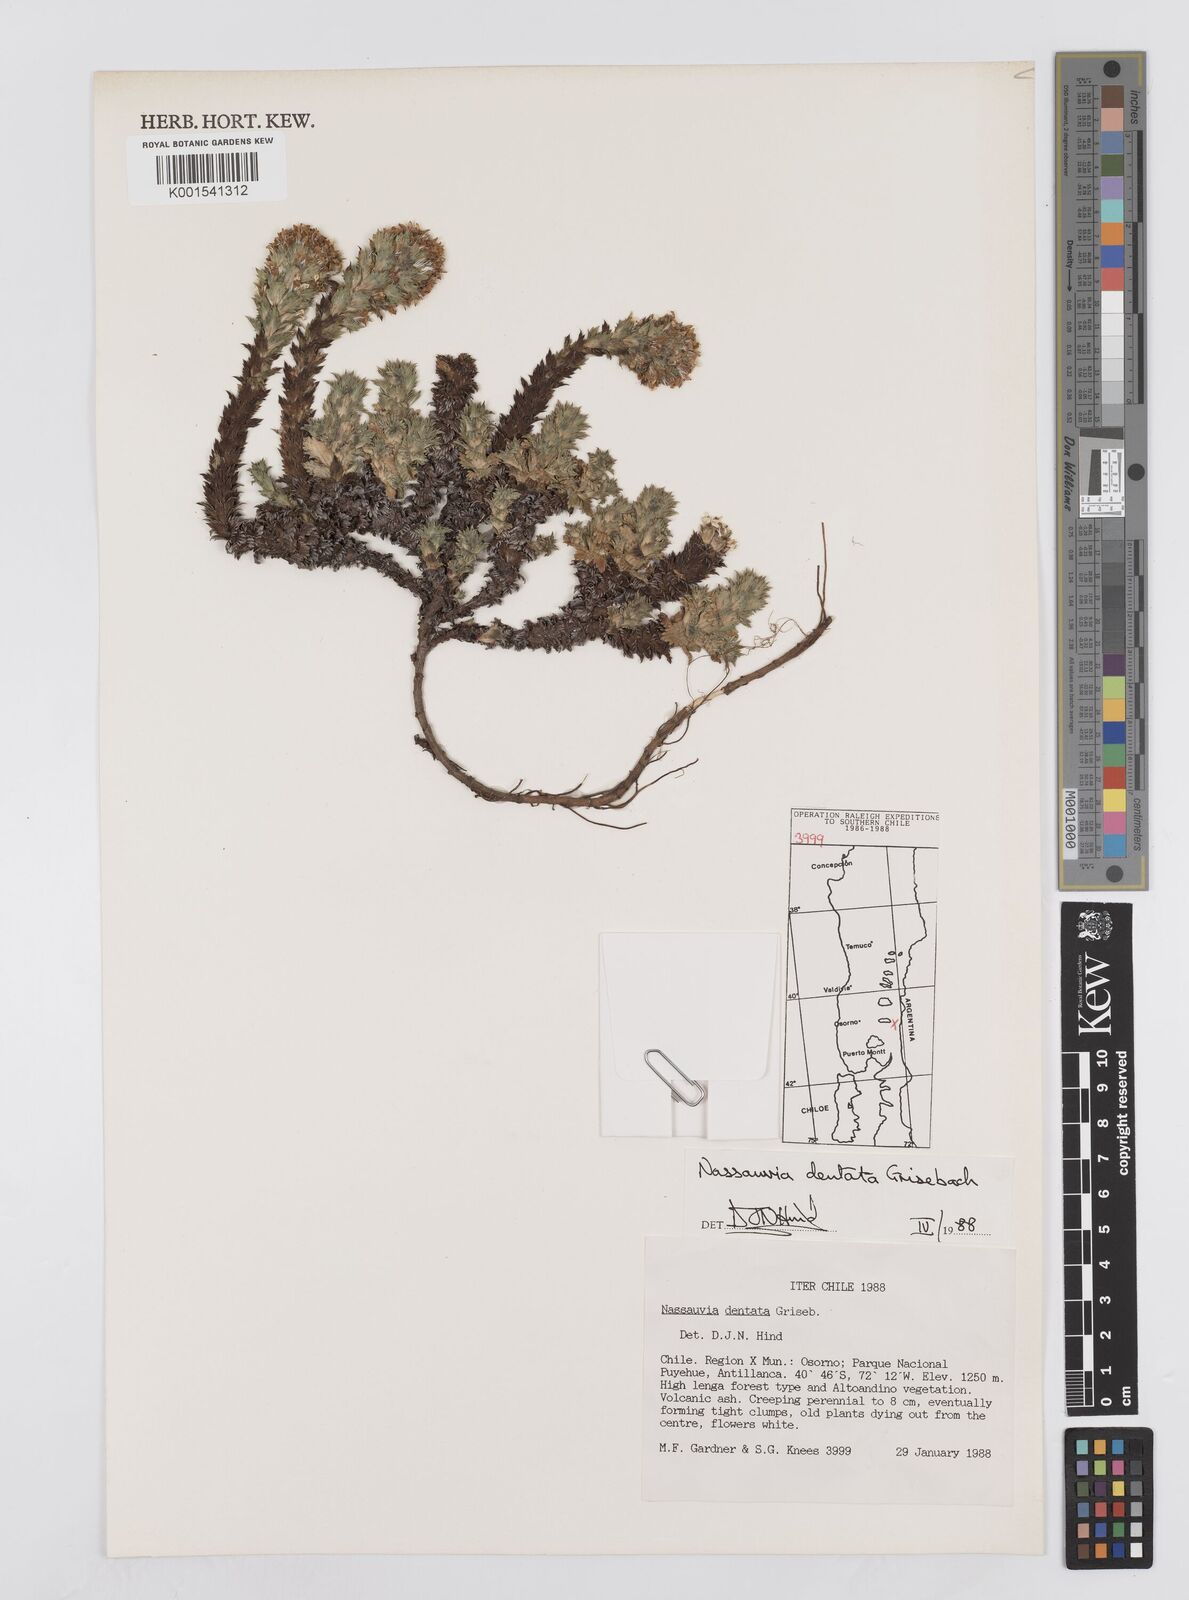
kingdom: Plantae
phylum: Tracheophyta
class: Magnoliopsida
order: Asterales
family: Asteraceae
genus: Nassauvia
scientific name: Nassauvia dentata
